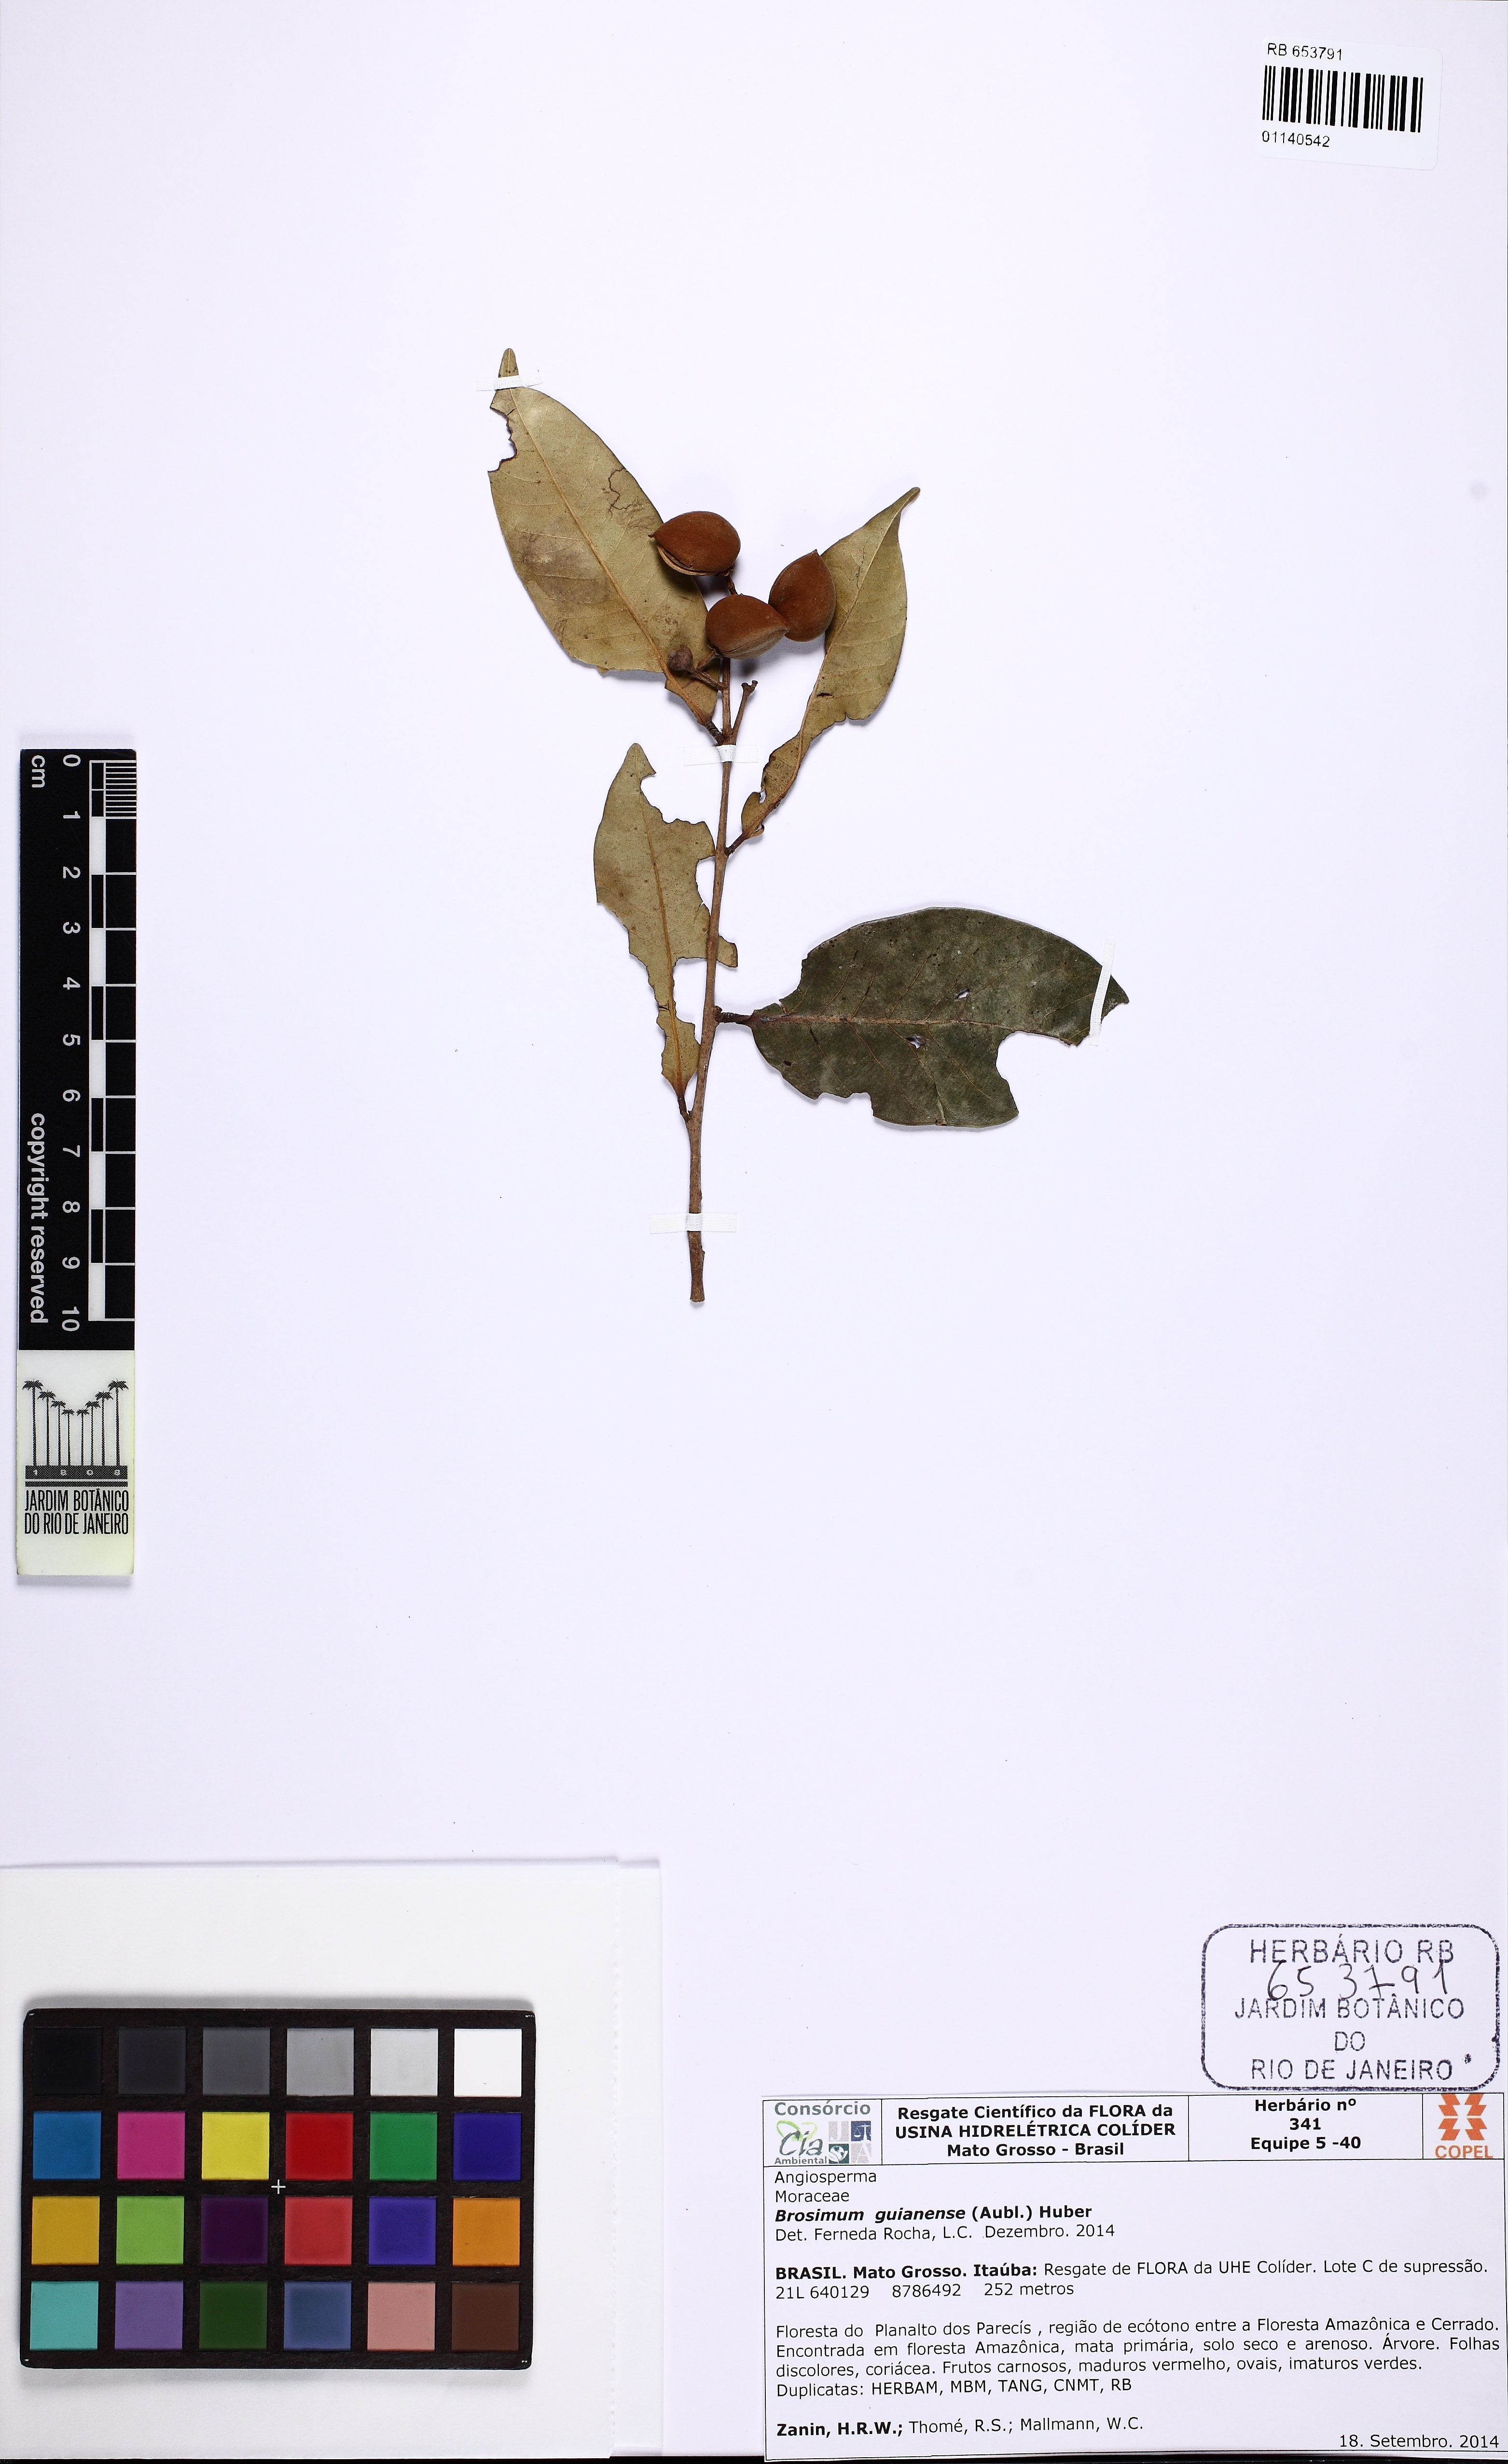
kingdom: Plantae
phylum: Tracheophyta
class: Magnoliopsida
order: Rosales
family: Moraceae
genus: Brosimum
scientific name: Brosimum guianense
